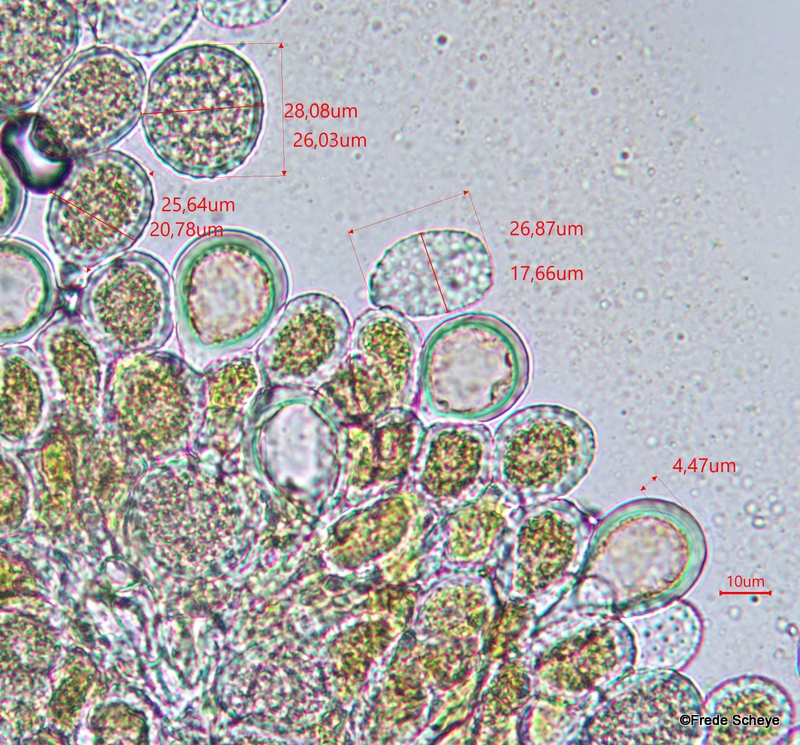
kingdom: Fungi
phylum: Basidiomycota
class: Pucciniomycetes
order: Pucciniales
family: Melampsoraceae
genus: Melampsora
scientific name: Melampsora populnea
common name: poppel-skorperust
